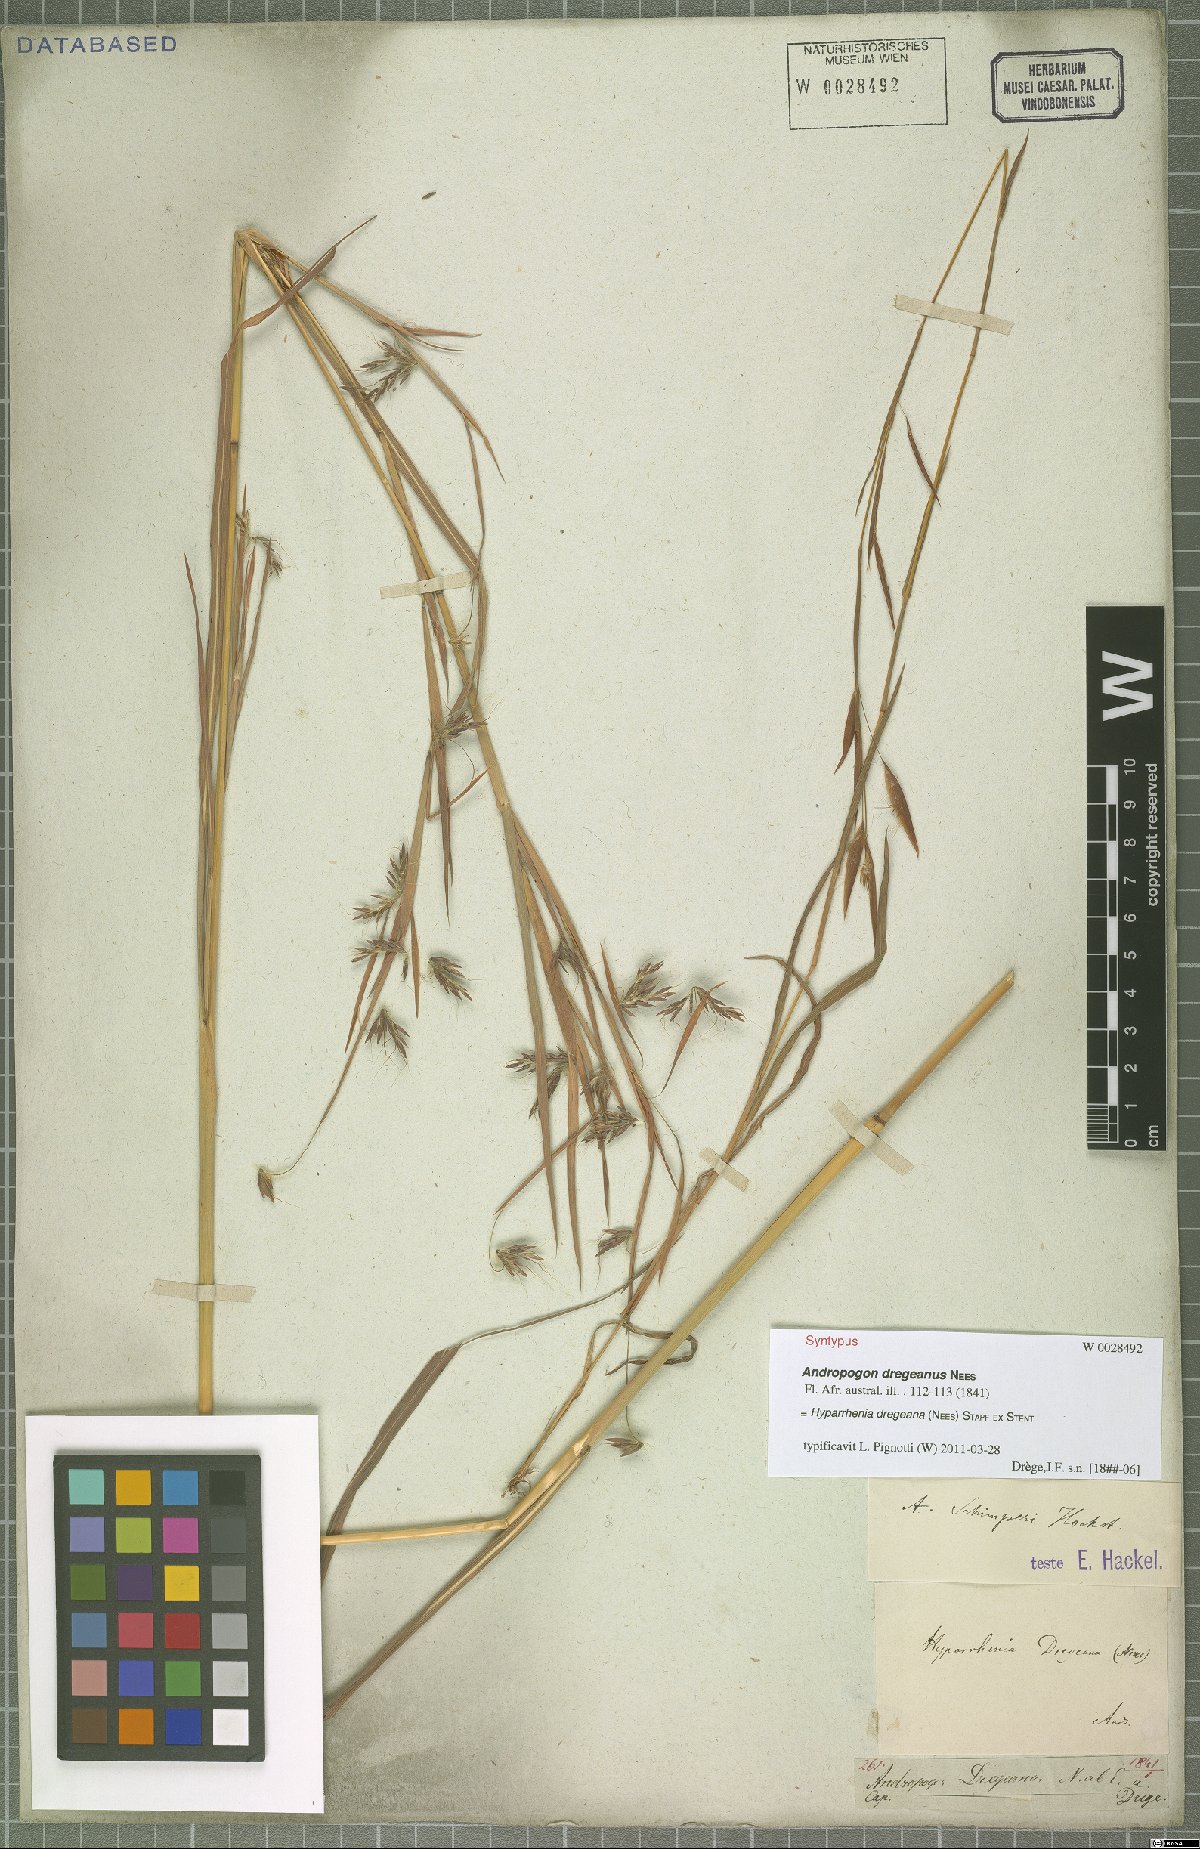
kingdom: Plantae
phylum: Tracheophyta
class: Liliopsida
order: Poales
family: Poaceae
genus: Hyparrhenia
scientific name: Hyparrhenia dregeana
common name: Silky thatching grass
